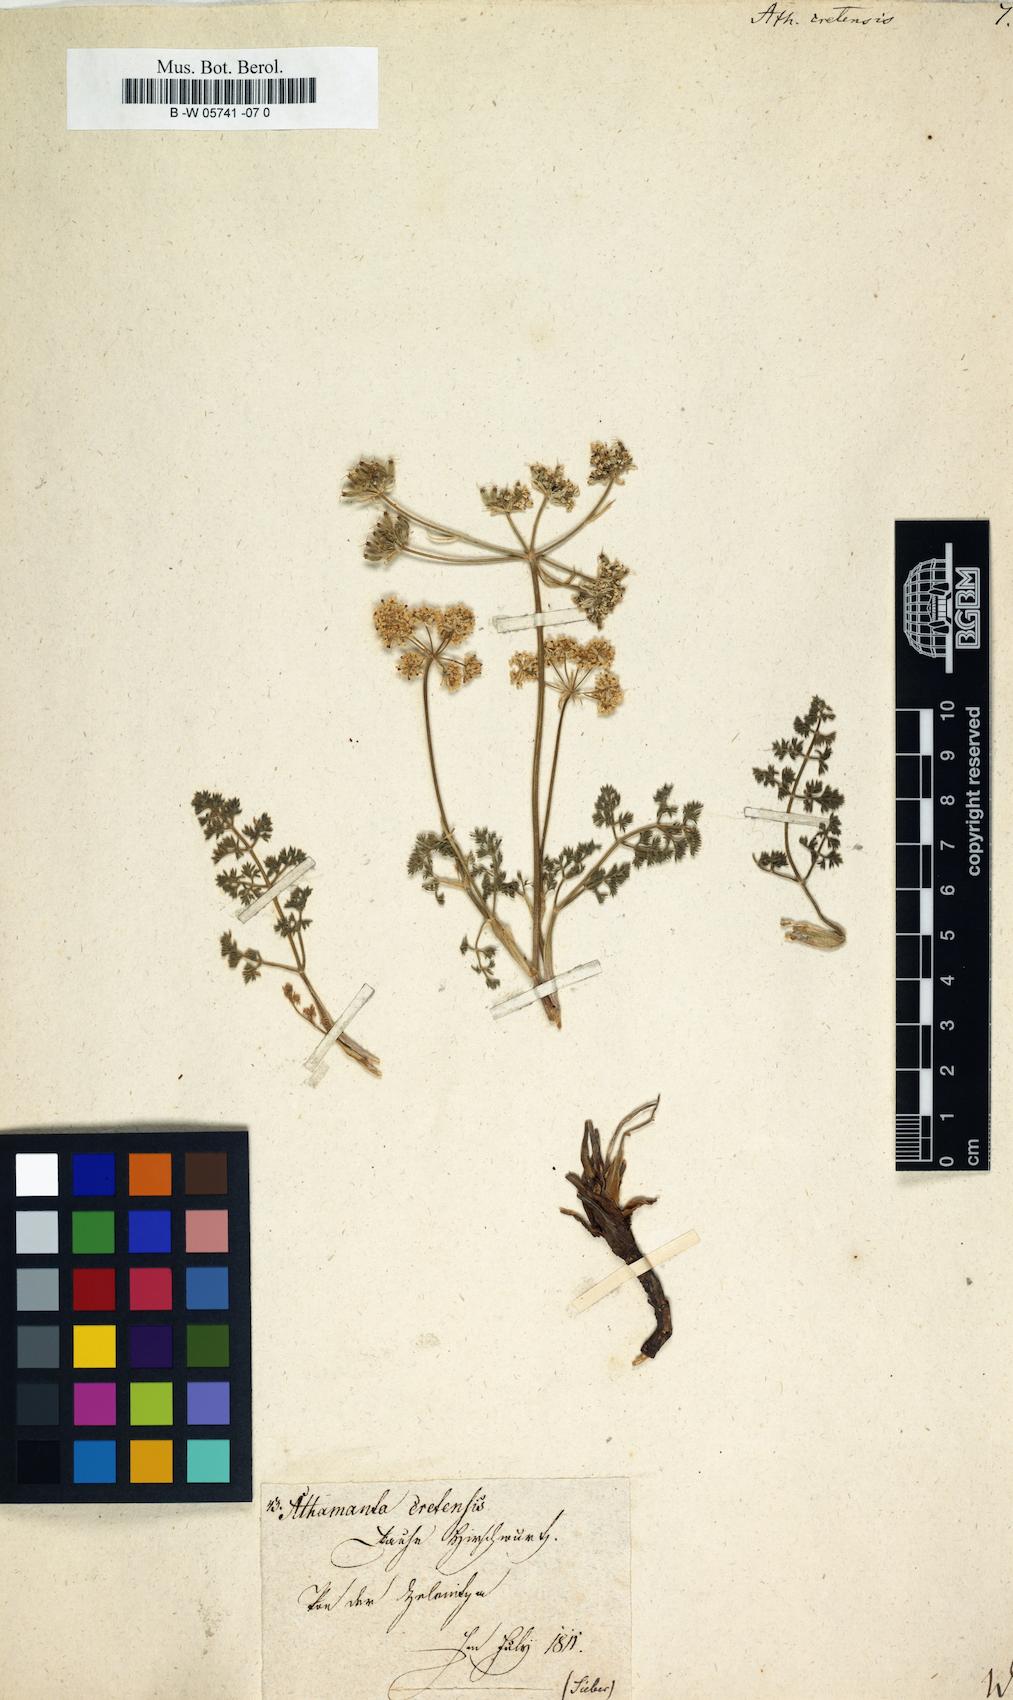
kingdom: Plantae
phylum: Tracheophyta
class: Magnoliopsida
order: Apiales
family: Apiaceae
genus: Athamanta
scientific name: Athamanta cretensis
